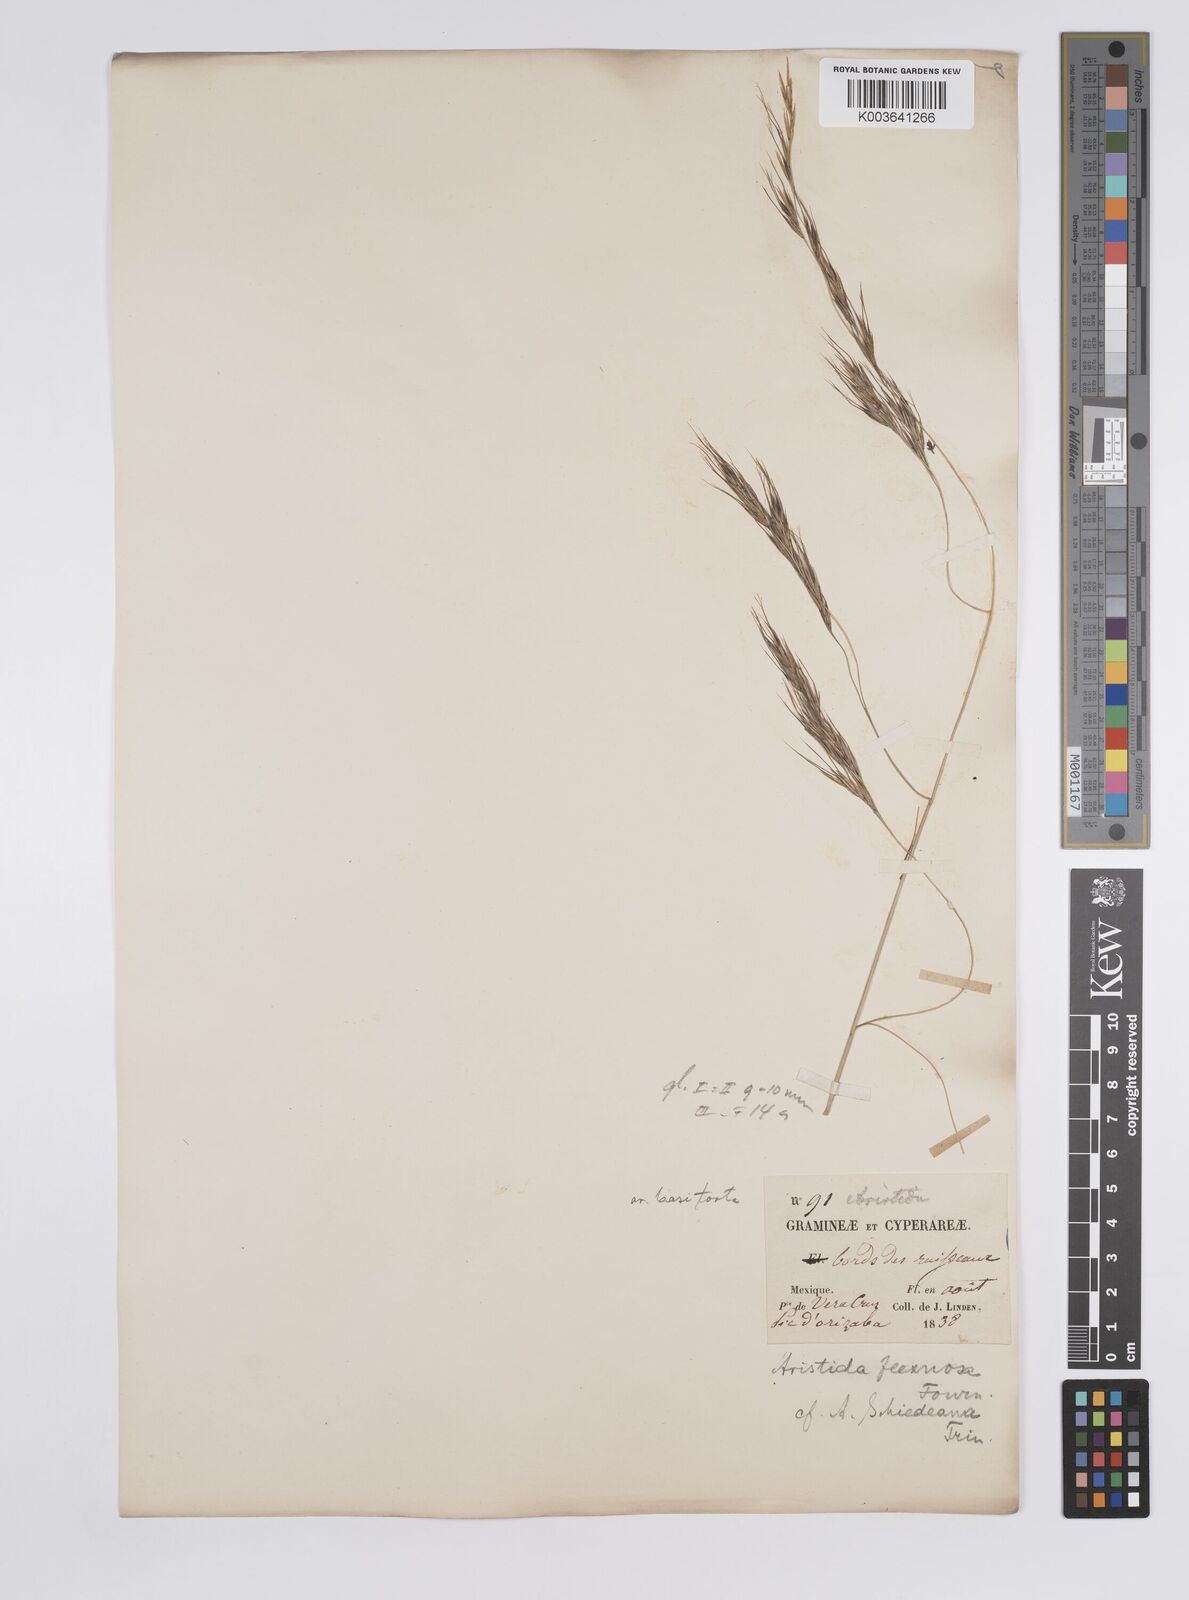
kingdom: Plantae
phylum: Tracheophyta
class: Liliopsida
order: Poales
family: Poaceae
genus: Aristida
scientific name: Aristida schiedeana
